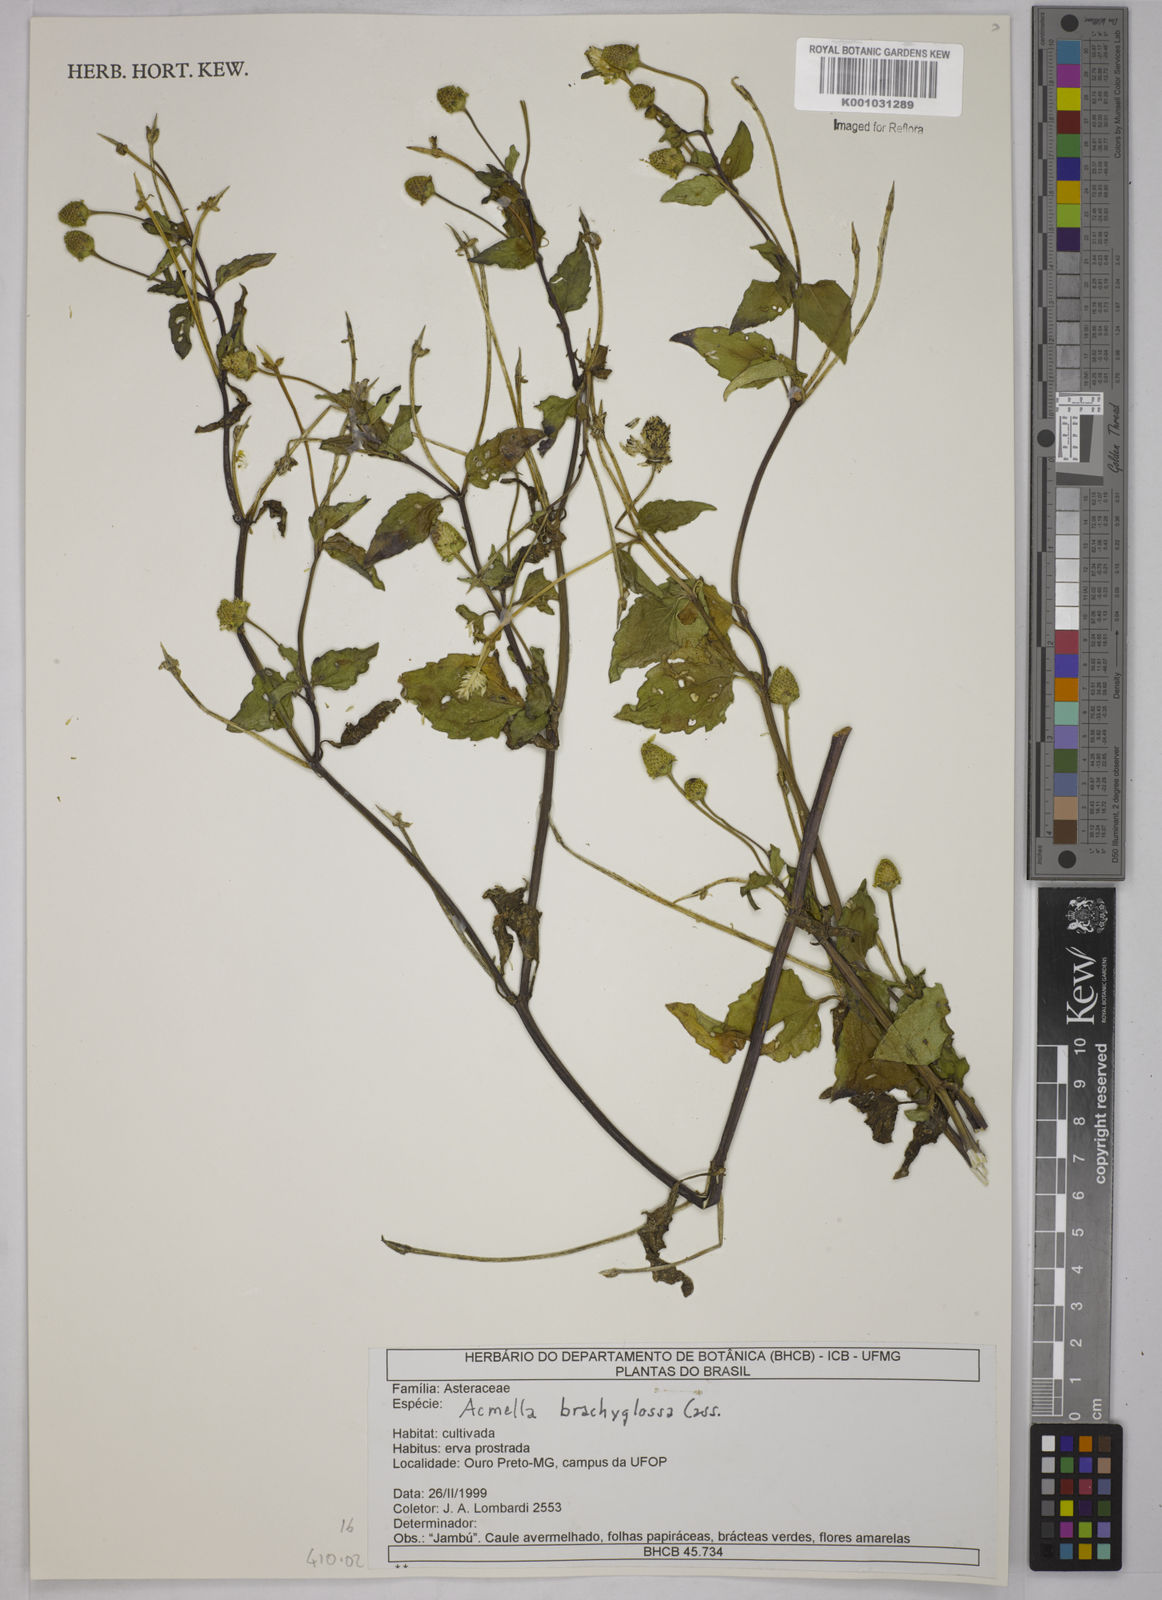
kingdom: Plantae
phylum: Tracheophyta
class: Magnoliopsida
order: Asterales
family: Asteraceae
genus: Acmella
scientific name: Acmella brachyglossa
